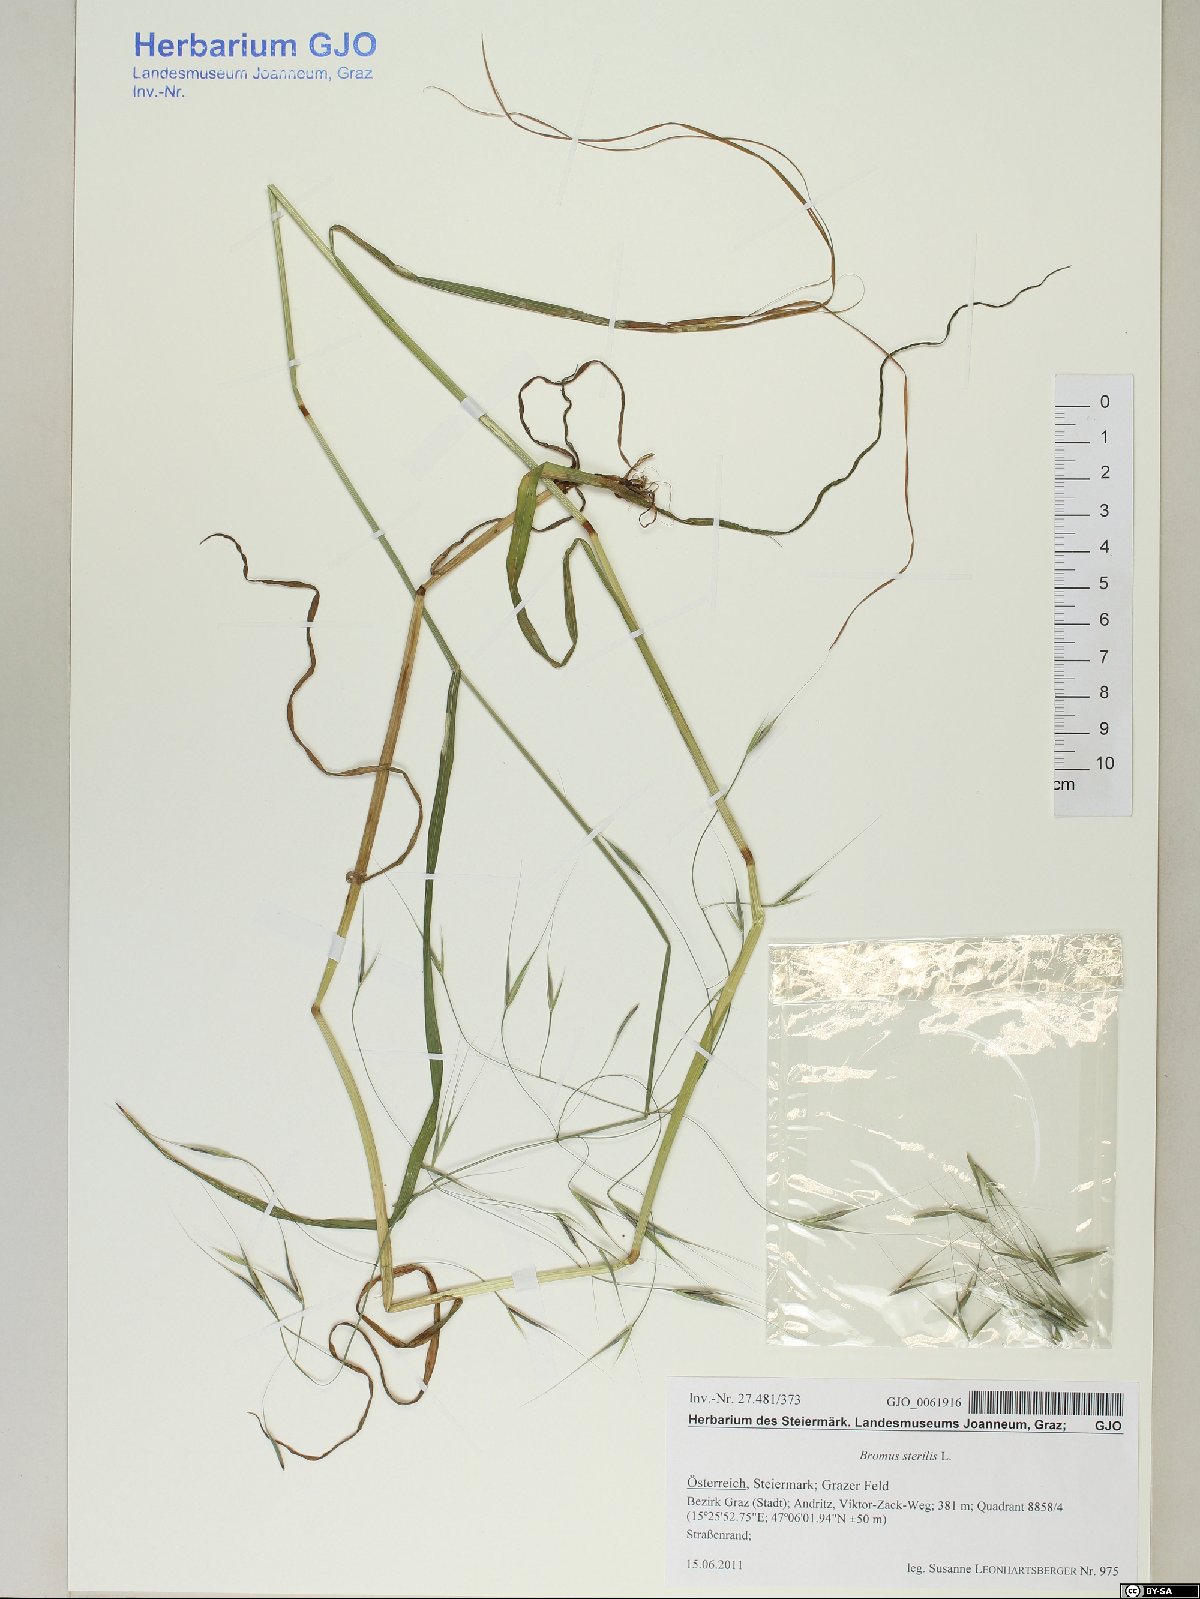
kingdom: Plantae
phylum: Tracheophyta
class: Liliopsida
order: Poales
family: Poaceae
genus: Bromus
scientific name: Bromus sterilis
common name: Poverty brome
